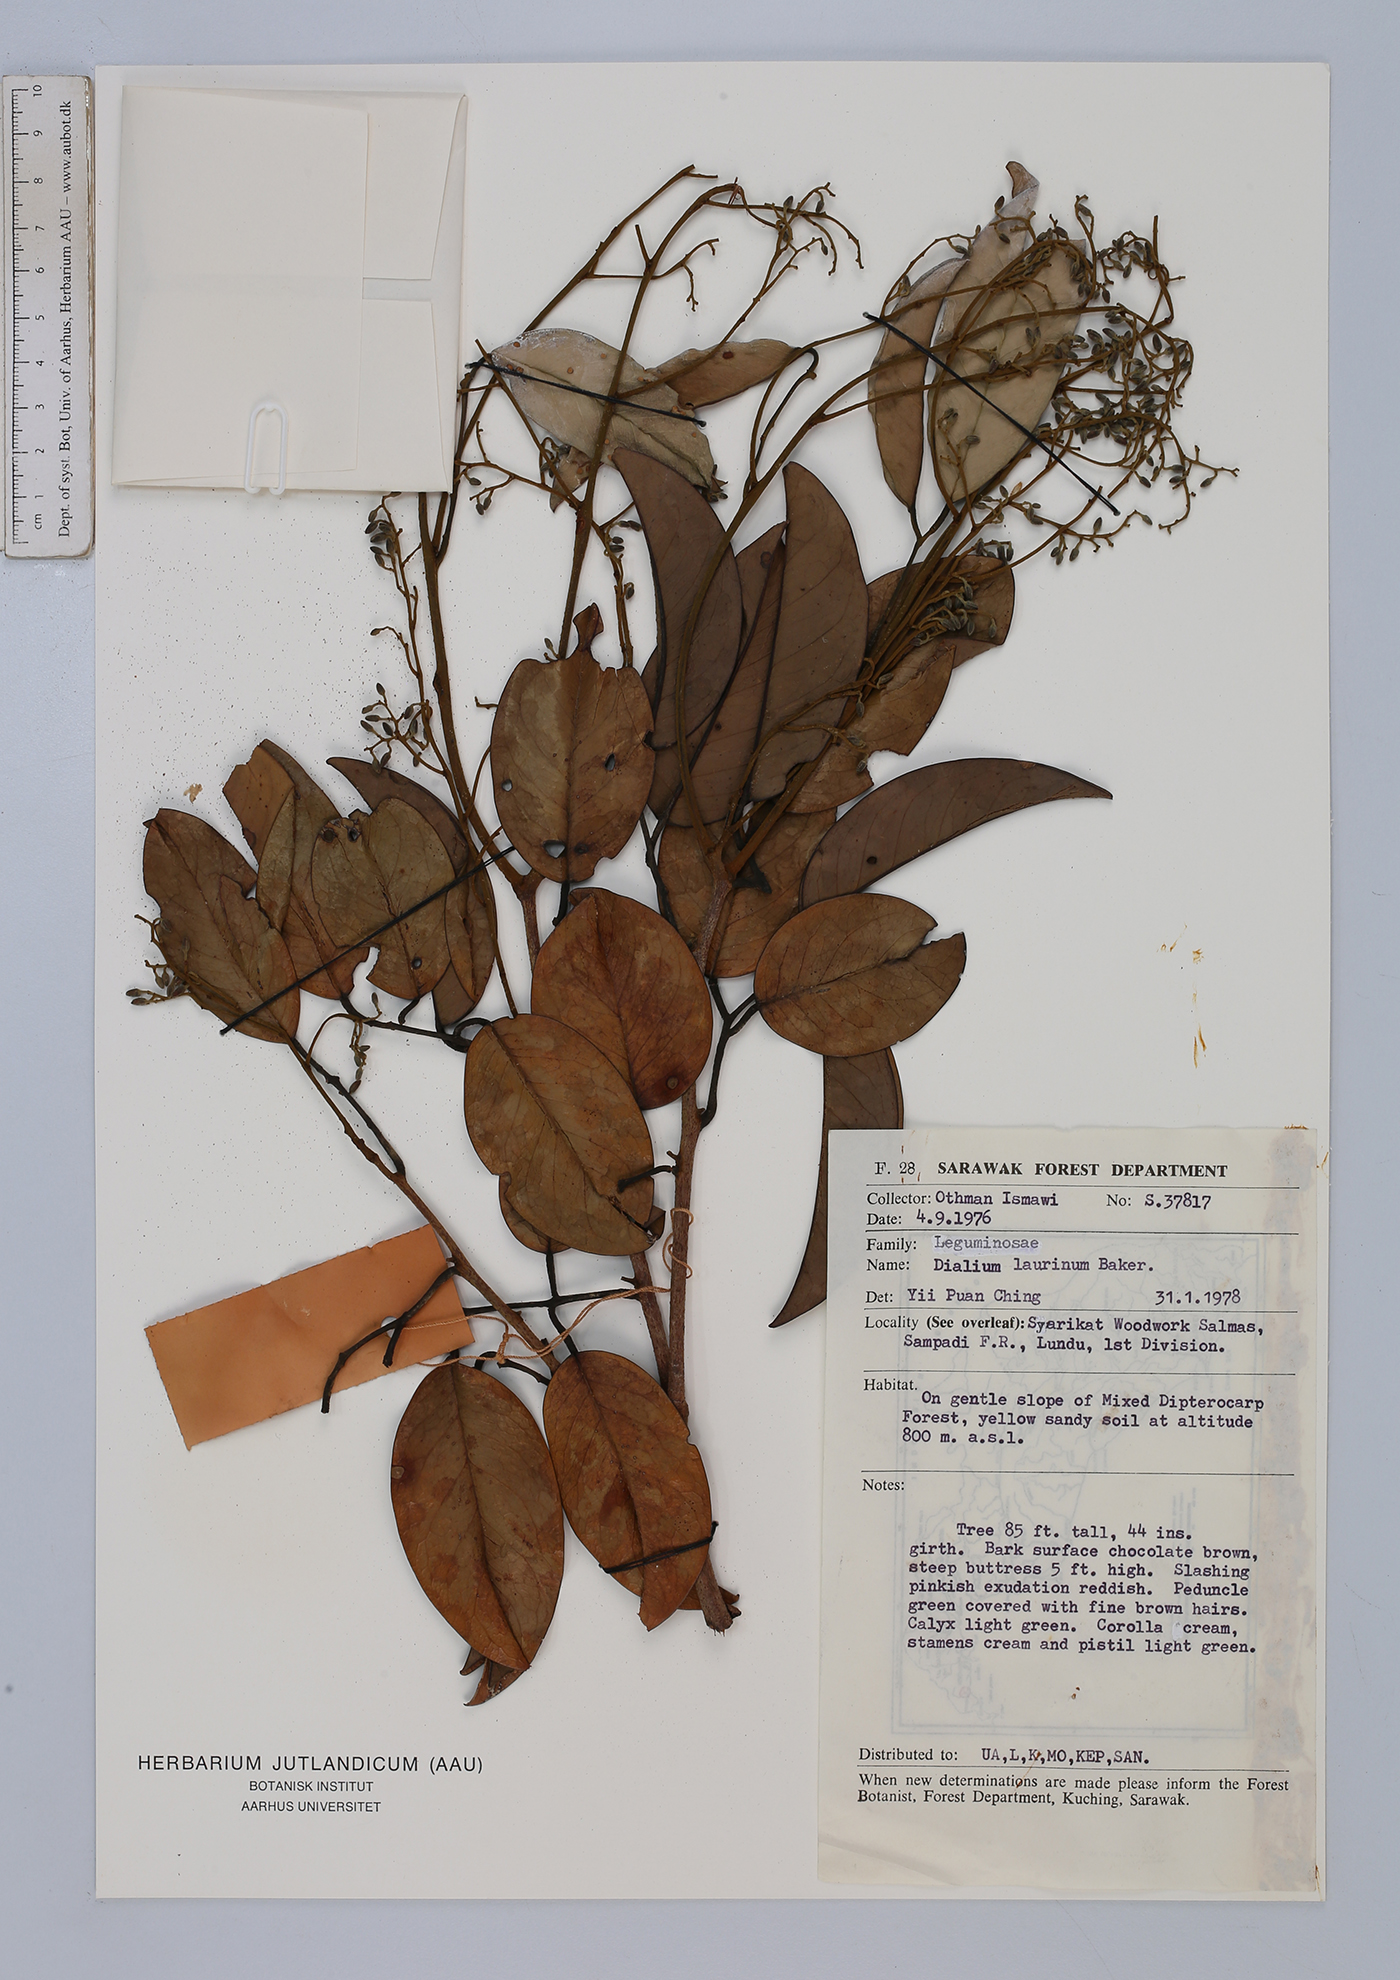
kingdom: Plantae
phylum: Tracheophyta
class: Magnoliopsida
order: Fabales
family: Fabaceae
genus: Dialium
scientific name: Dialium indum
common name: Tamarind-plum
